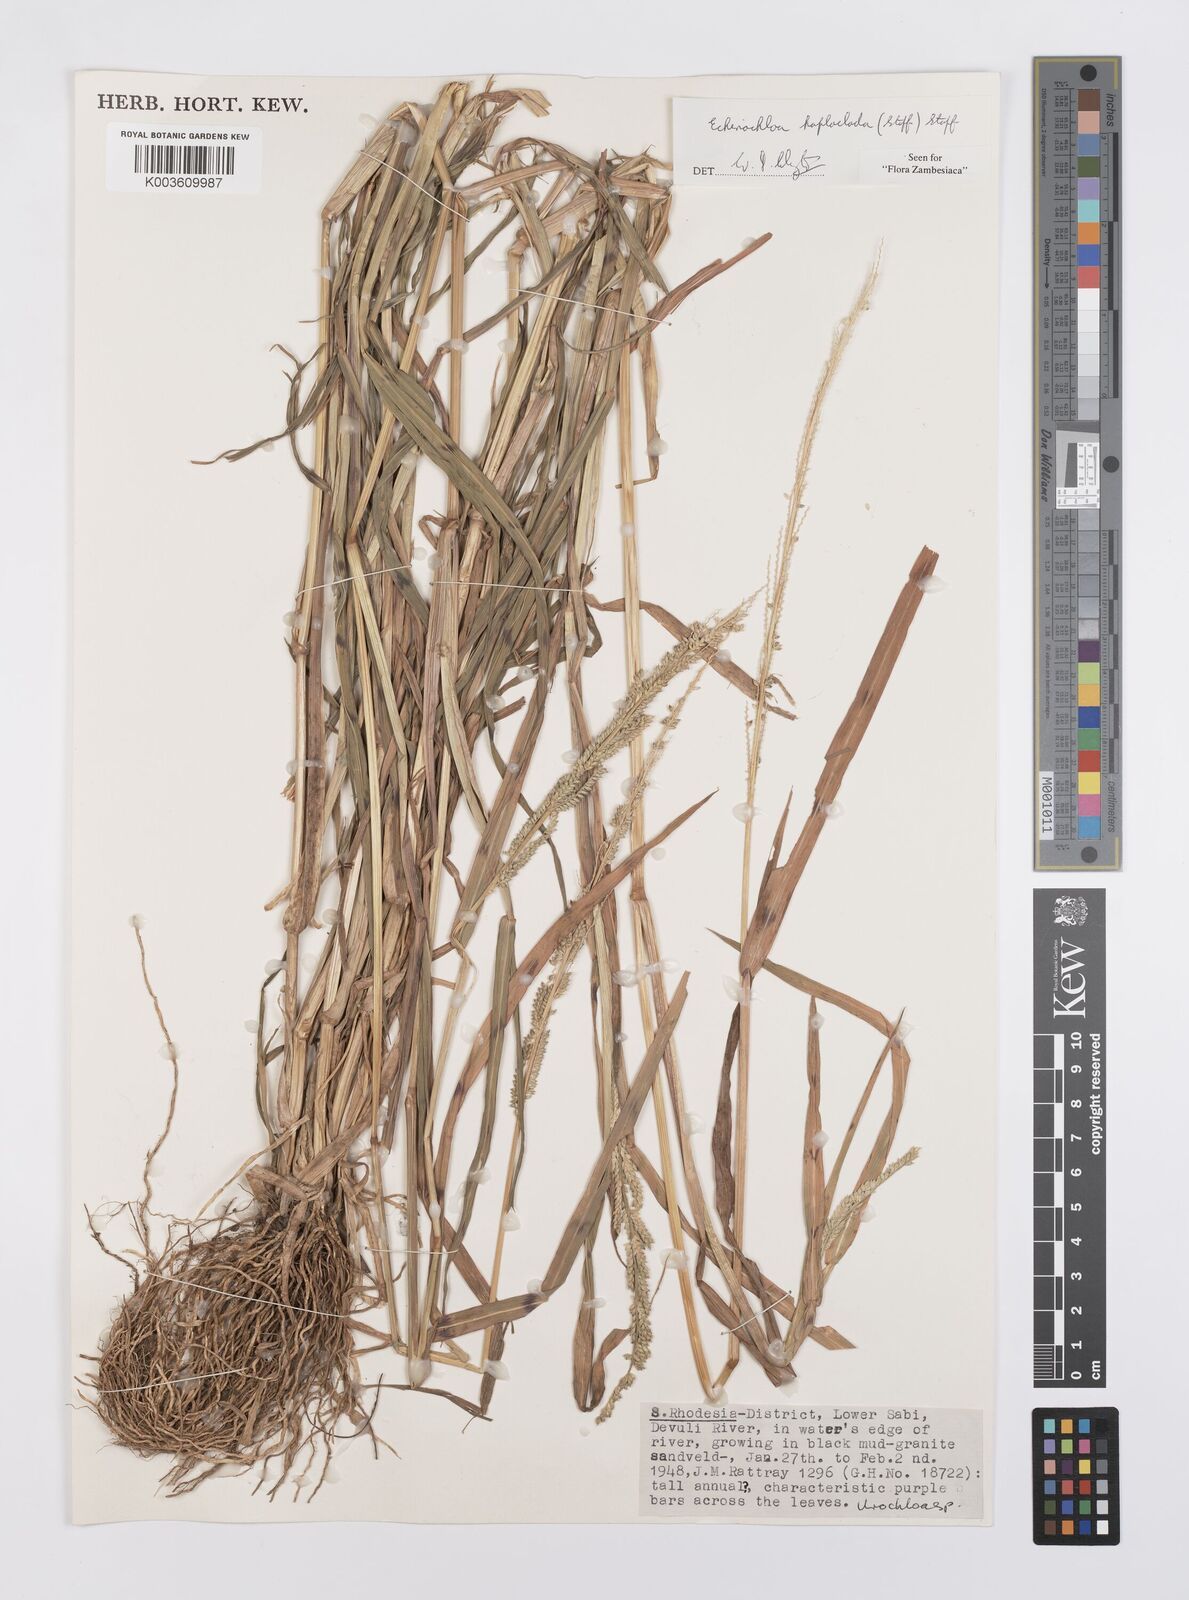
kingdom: Plantae
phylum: Tracheophyta
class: Liliopsida
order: Poales
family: Poaceae
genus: Echinochloa
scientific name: Echinochloa haploclada
